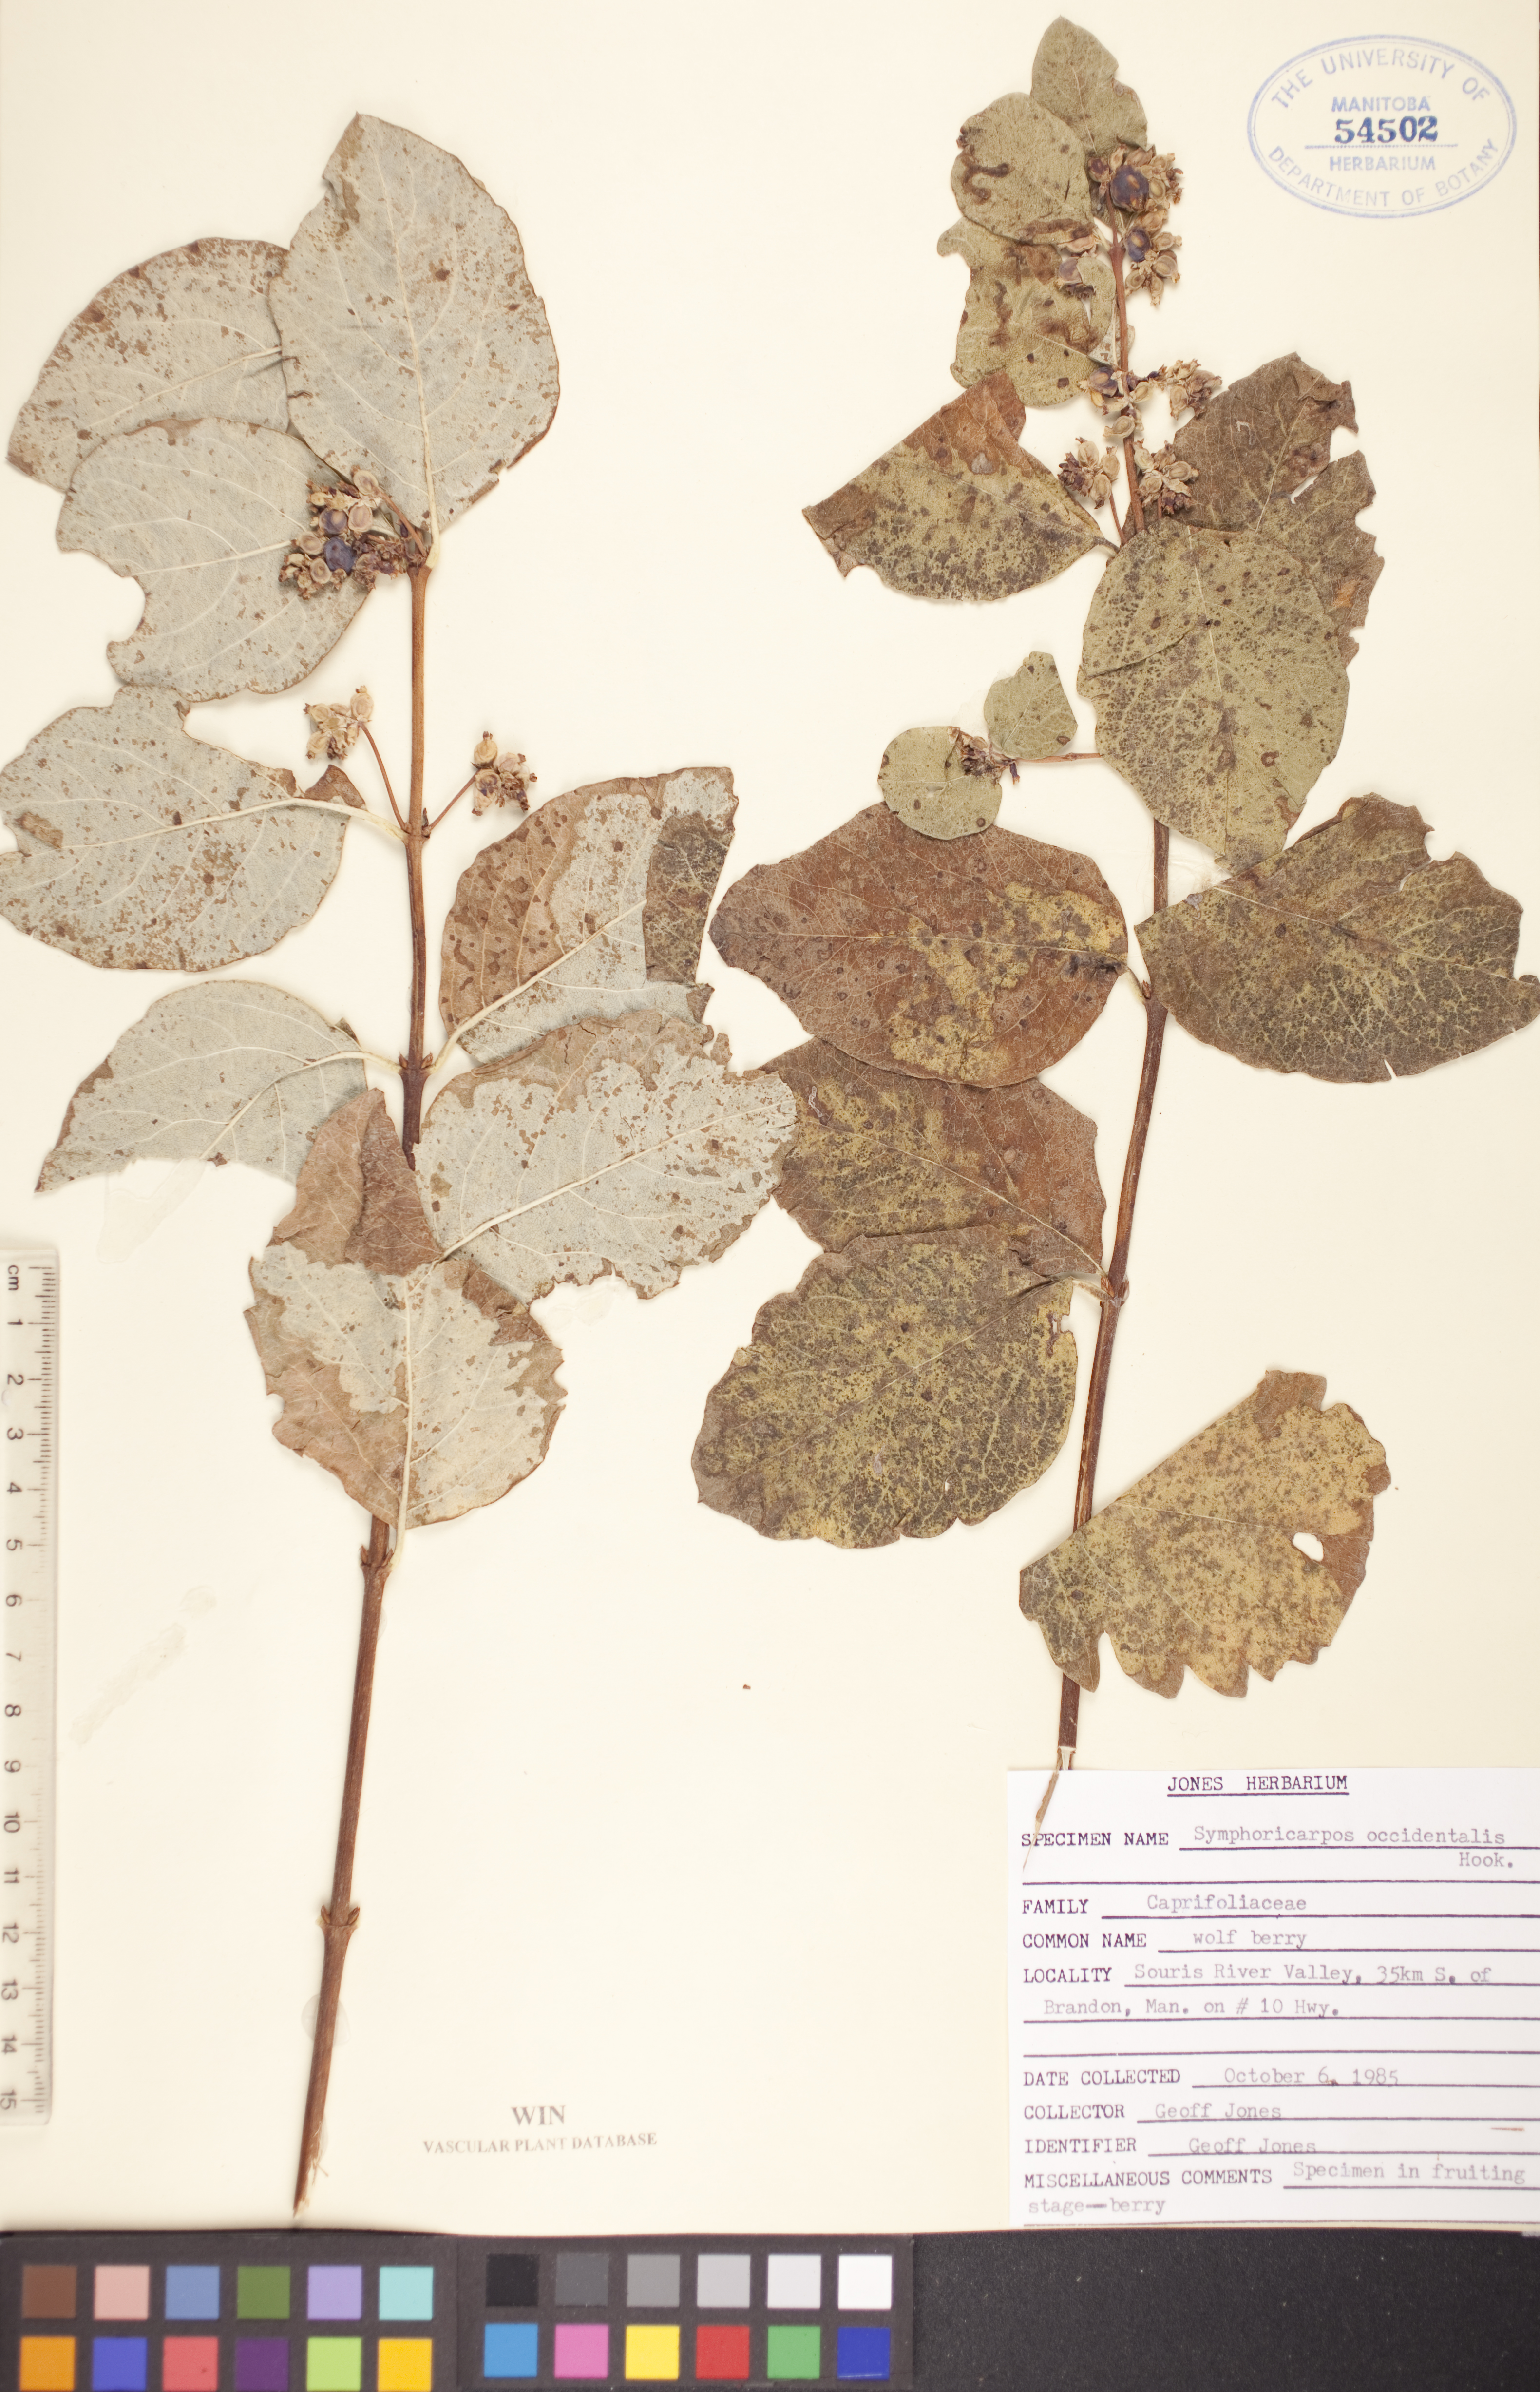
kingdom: Plantae
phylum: Tracheophyta
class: Magnoliopsida
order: Dipsacales
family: Caprifoliaceae
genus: Symphoricarpos
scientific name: Symphoricarpos occidentalis
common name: Wolfberry
